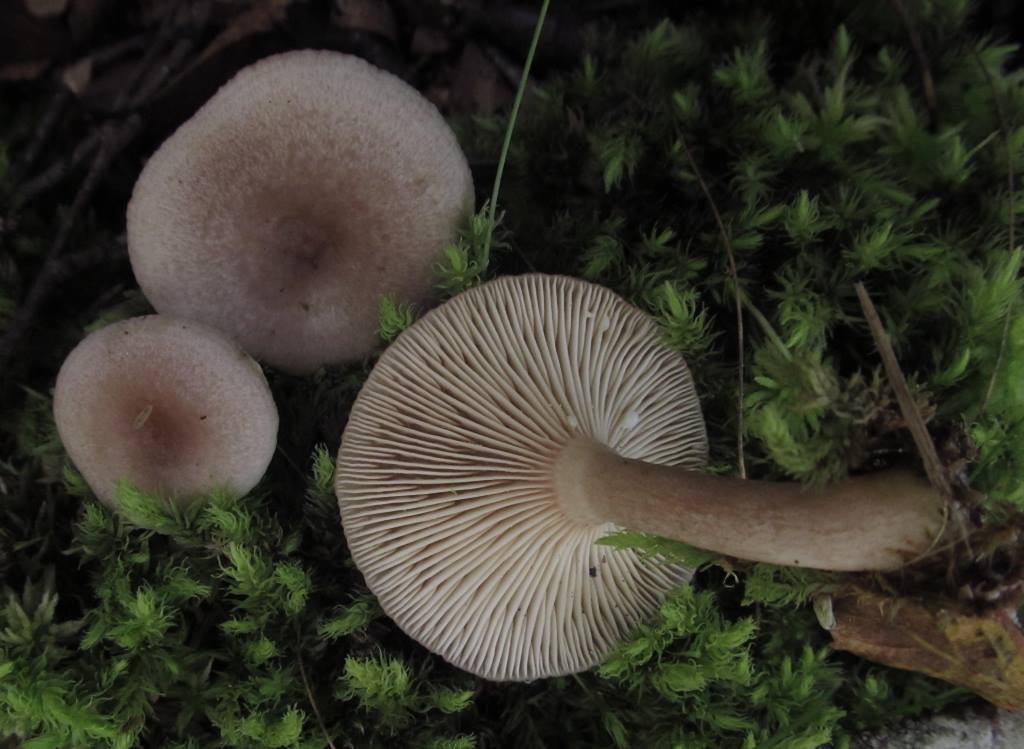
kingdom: Fungi
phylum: Basidiomycota
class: Agaricomycetes
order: Russulales
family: Russulaceae
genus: Lactarius
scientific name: Lactarius vietus
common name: violetgrå mælkehat
